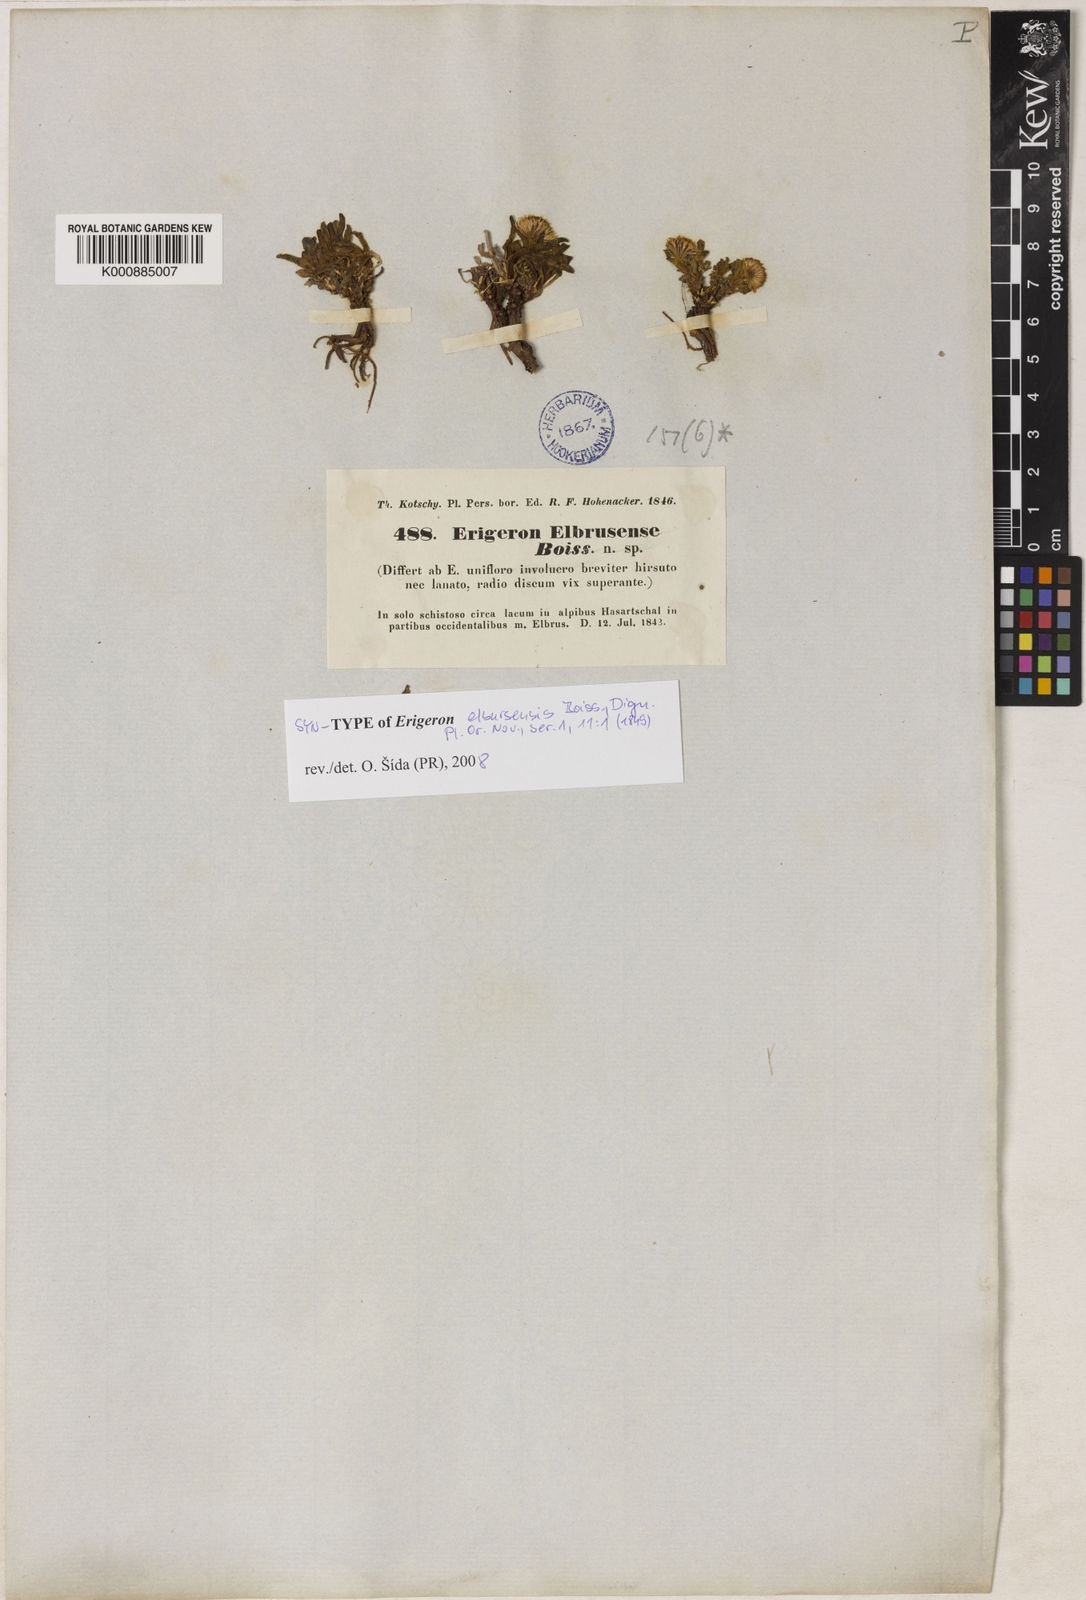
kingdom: Plantae
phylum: Tracheophyta
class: Magnoliopsida
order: Asterales
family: Asteraceae
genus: Erigeron
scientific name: Erigeron elborsensis
